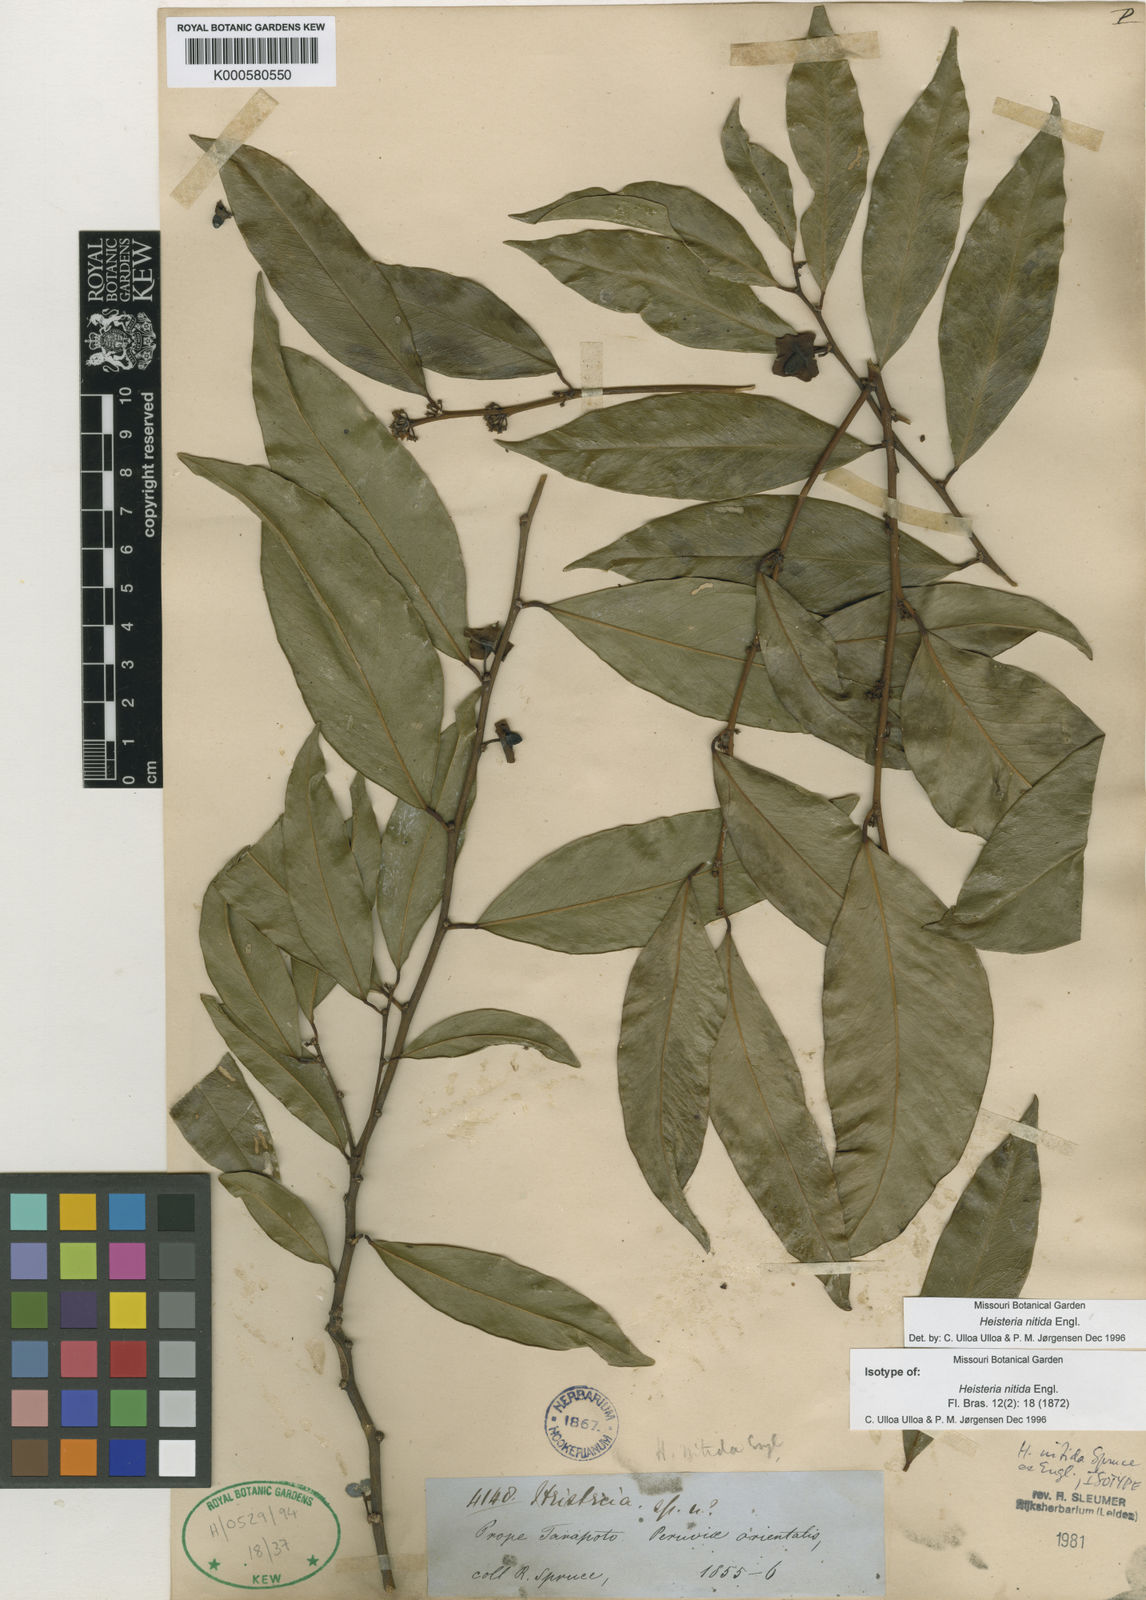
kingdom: Plantae
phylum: Tracheophyta
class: Magnoliopsida
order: Santalales
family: Erythropalaceae
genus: Heisteria
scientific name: Heisteria nitida
